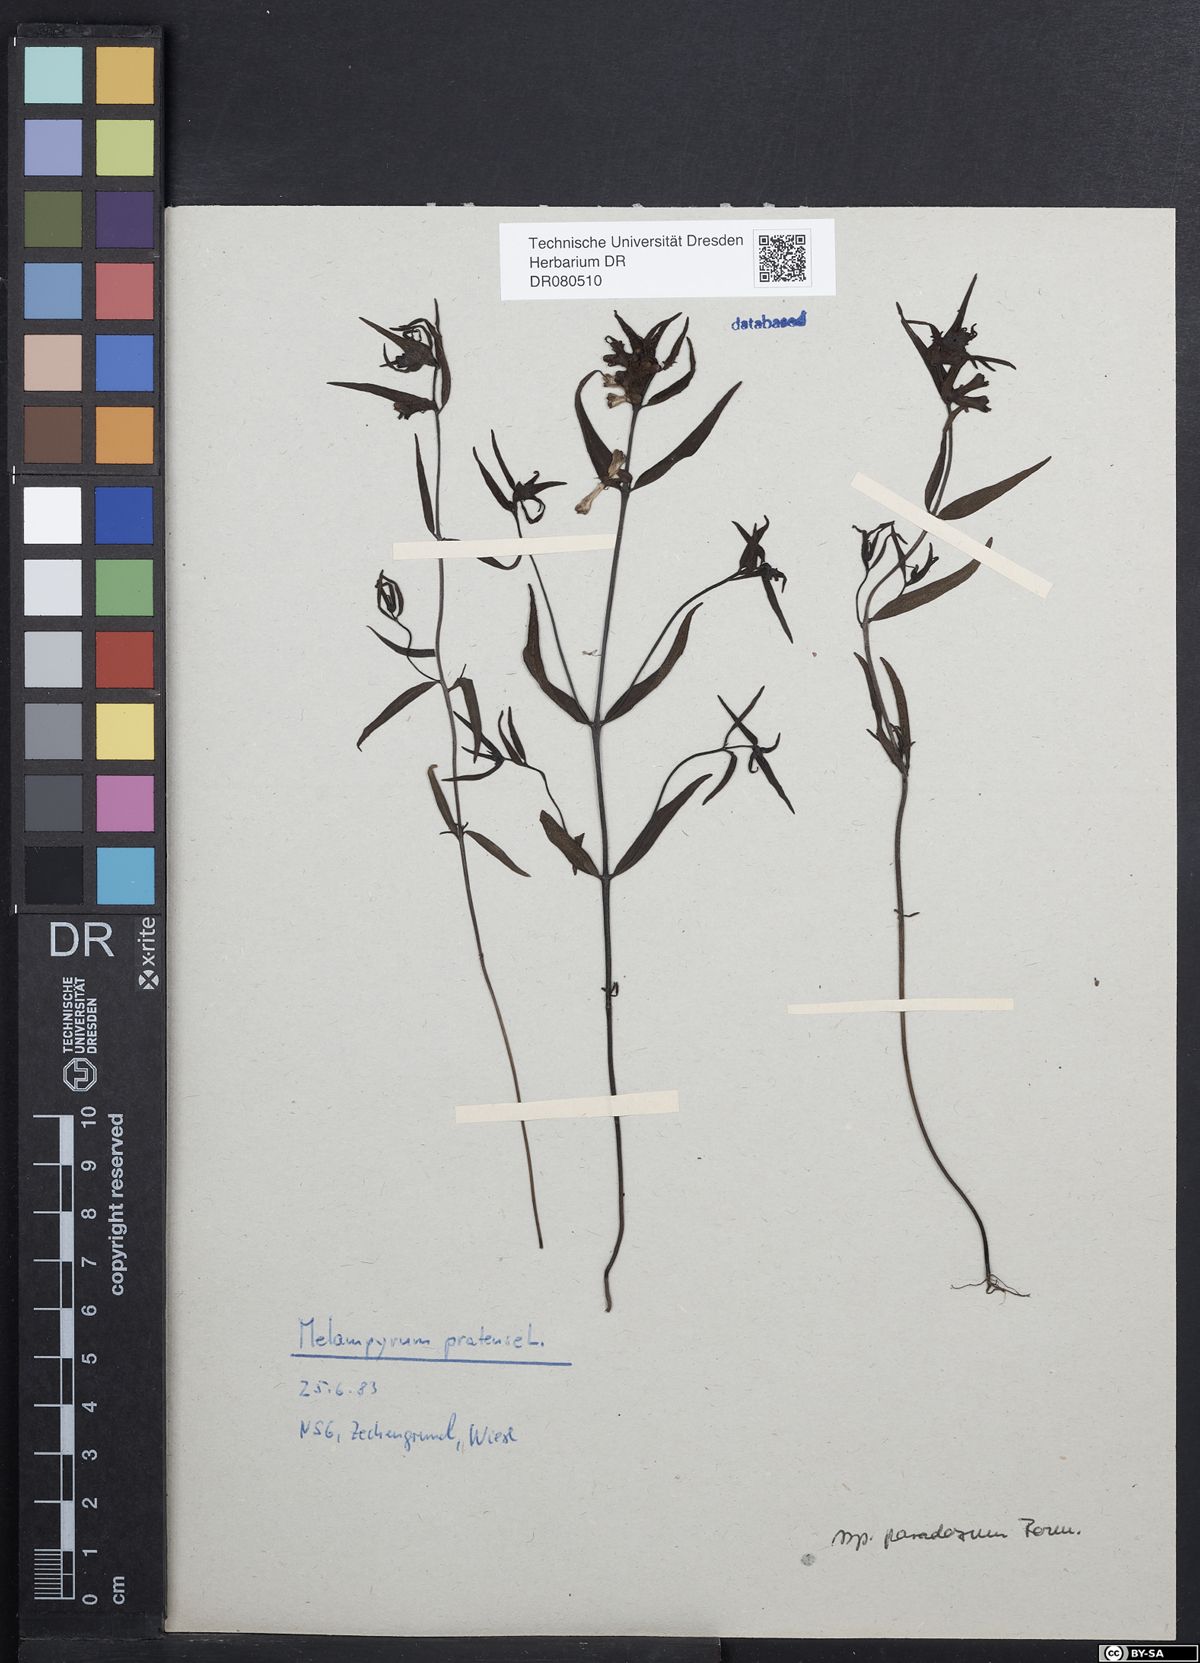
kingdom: Plantae
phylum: Tracheophyta
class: Magnoliopsida
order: Lamiales
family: Orobanchaceae
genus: Melampyrum
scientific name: Melampyrum pratense
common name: Common cow-wheat
